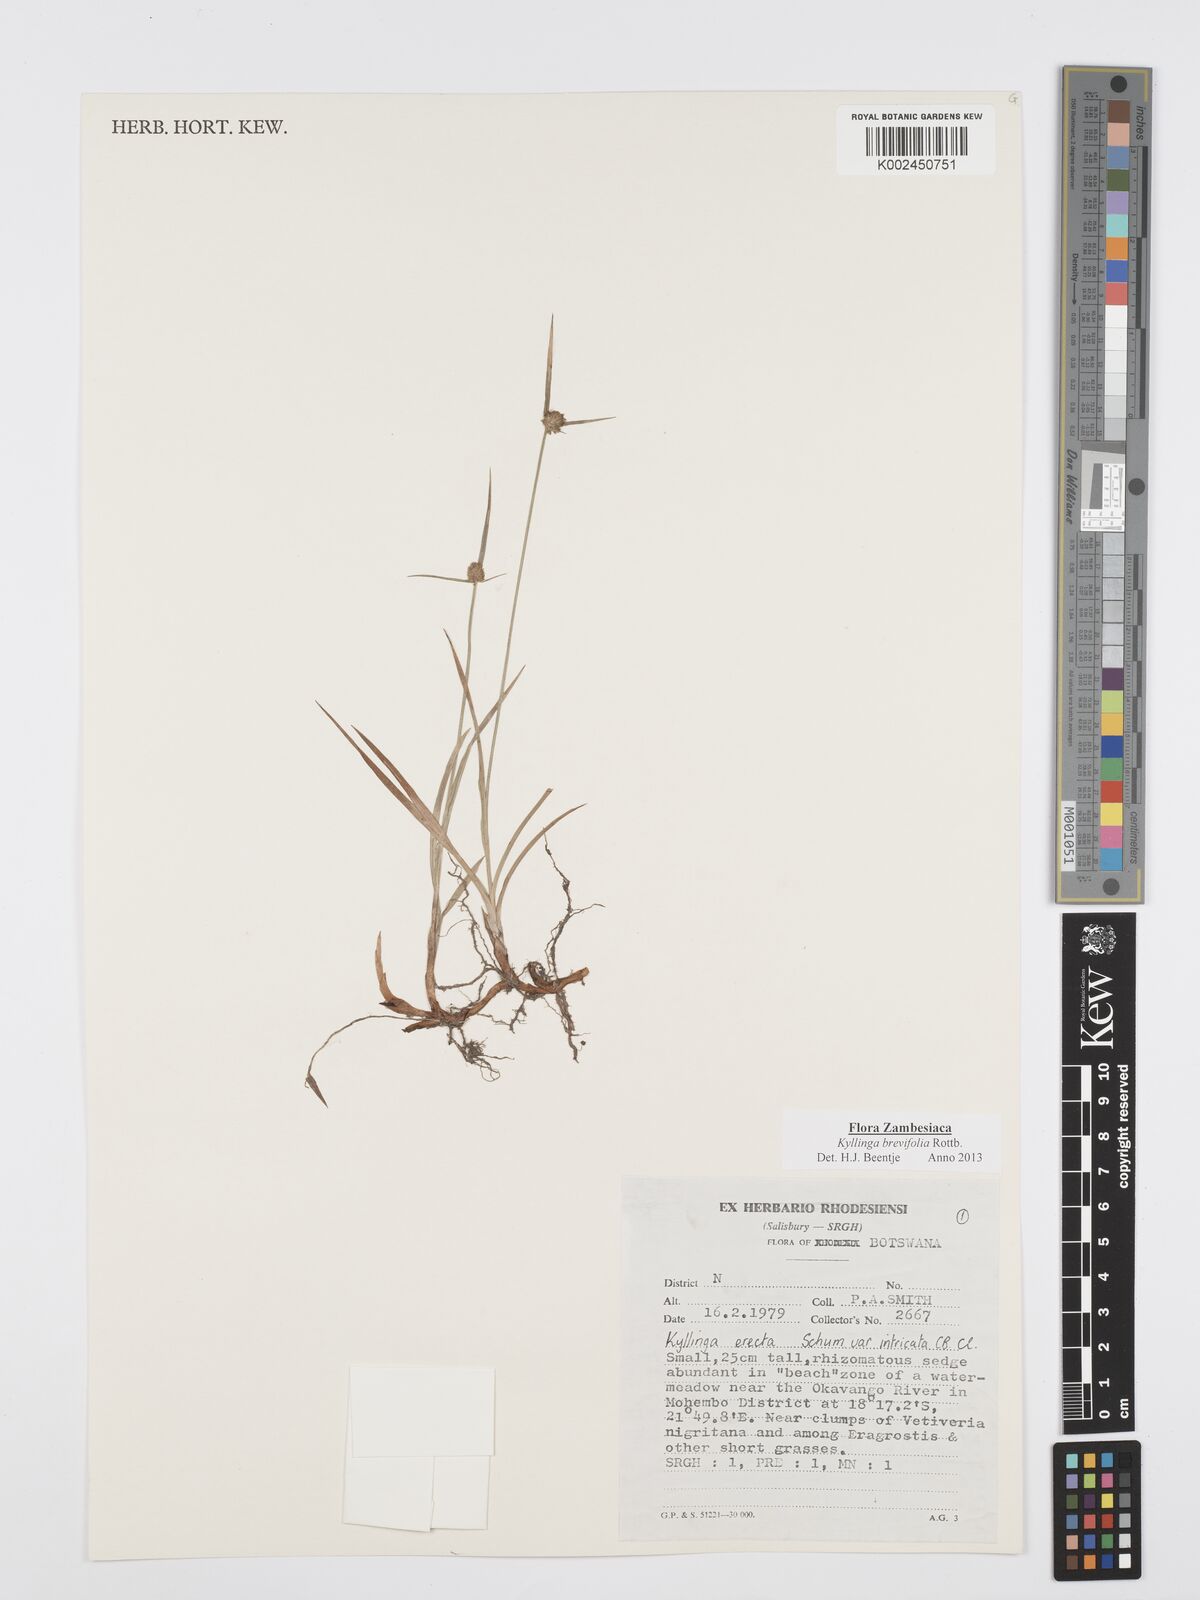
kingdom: Plantae
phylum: Tracheophyta
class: Liliopsida
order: Poales
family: Cyperaceae
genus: Cyperus
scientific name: Cyperus brevifolius
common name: Globe kyllinga
